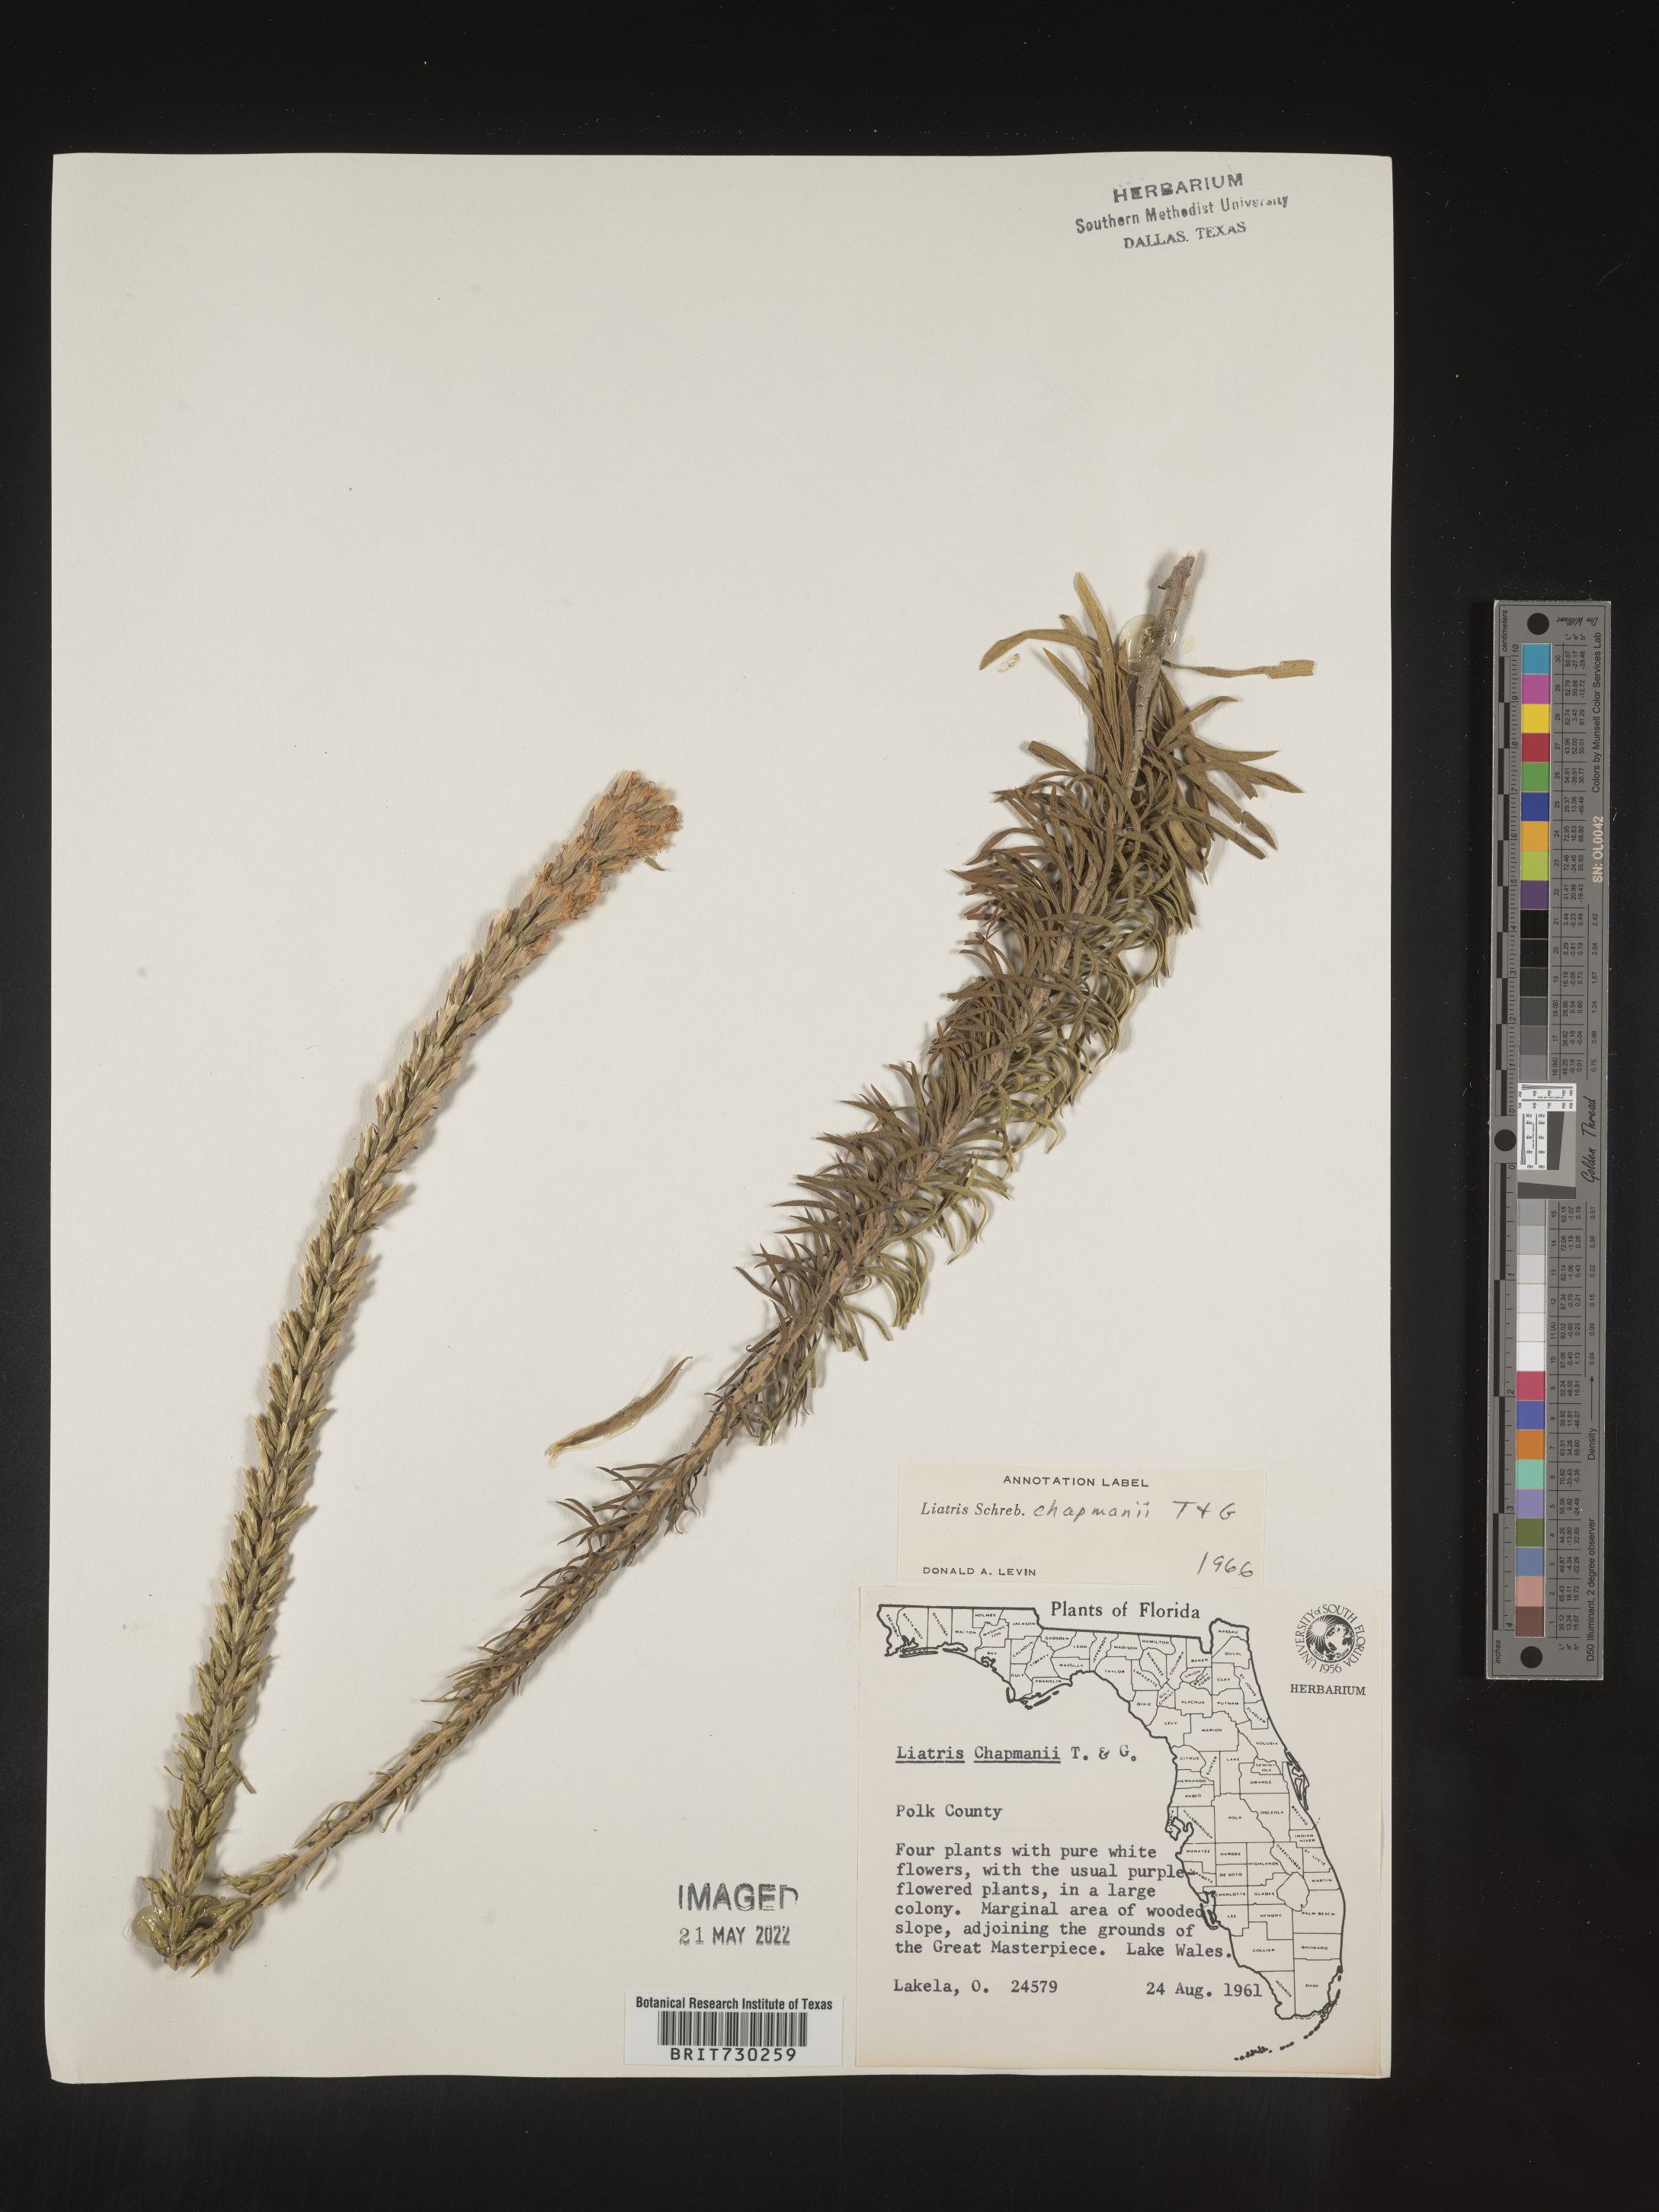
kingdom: Plantae
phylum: Tracheophyta
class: Magnoliopsida
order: Asterales
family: Asteraceae
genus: Liatris
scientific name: Liatris chapmanii
